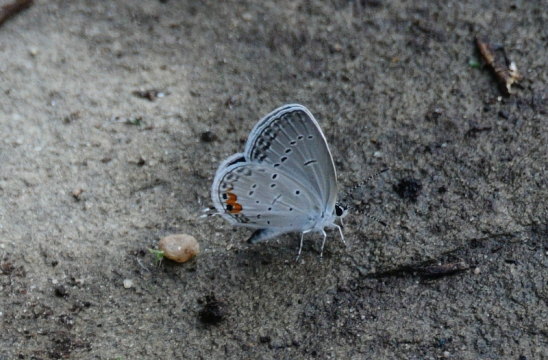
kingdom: Animalia
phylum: Arthropoda
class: Insecta
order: Lepidoptera
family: Lycaenidae
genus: Elkalyce
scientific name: Elkalyce comyntas
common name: Eastern Tailed-Blue
